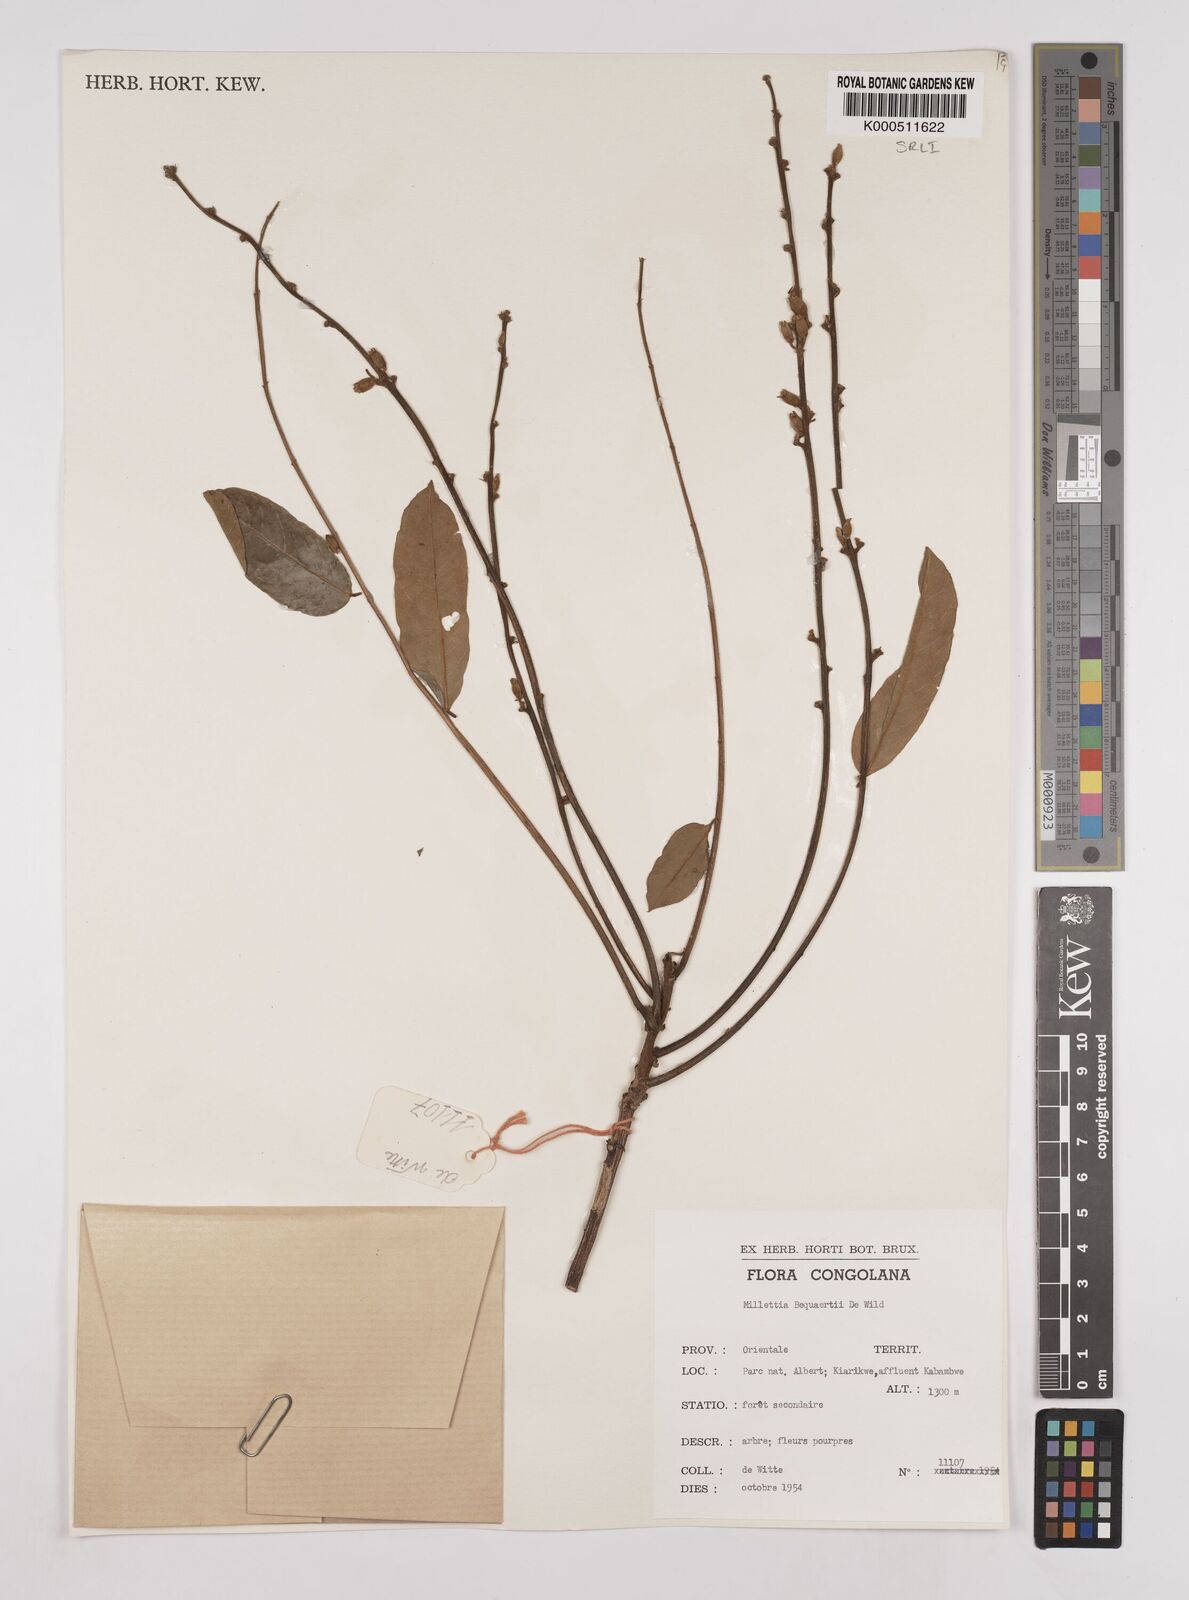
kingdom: Plantae
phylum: Tracheophyta
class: Magnoliopsida
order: Fabales
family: Fabaceae
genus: Millettia
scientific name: Millettia bequaertii
